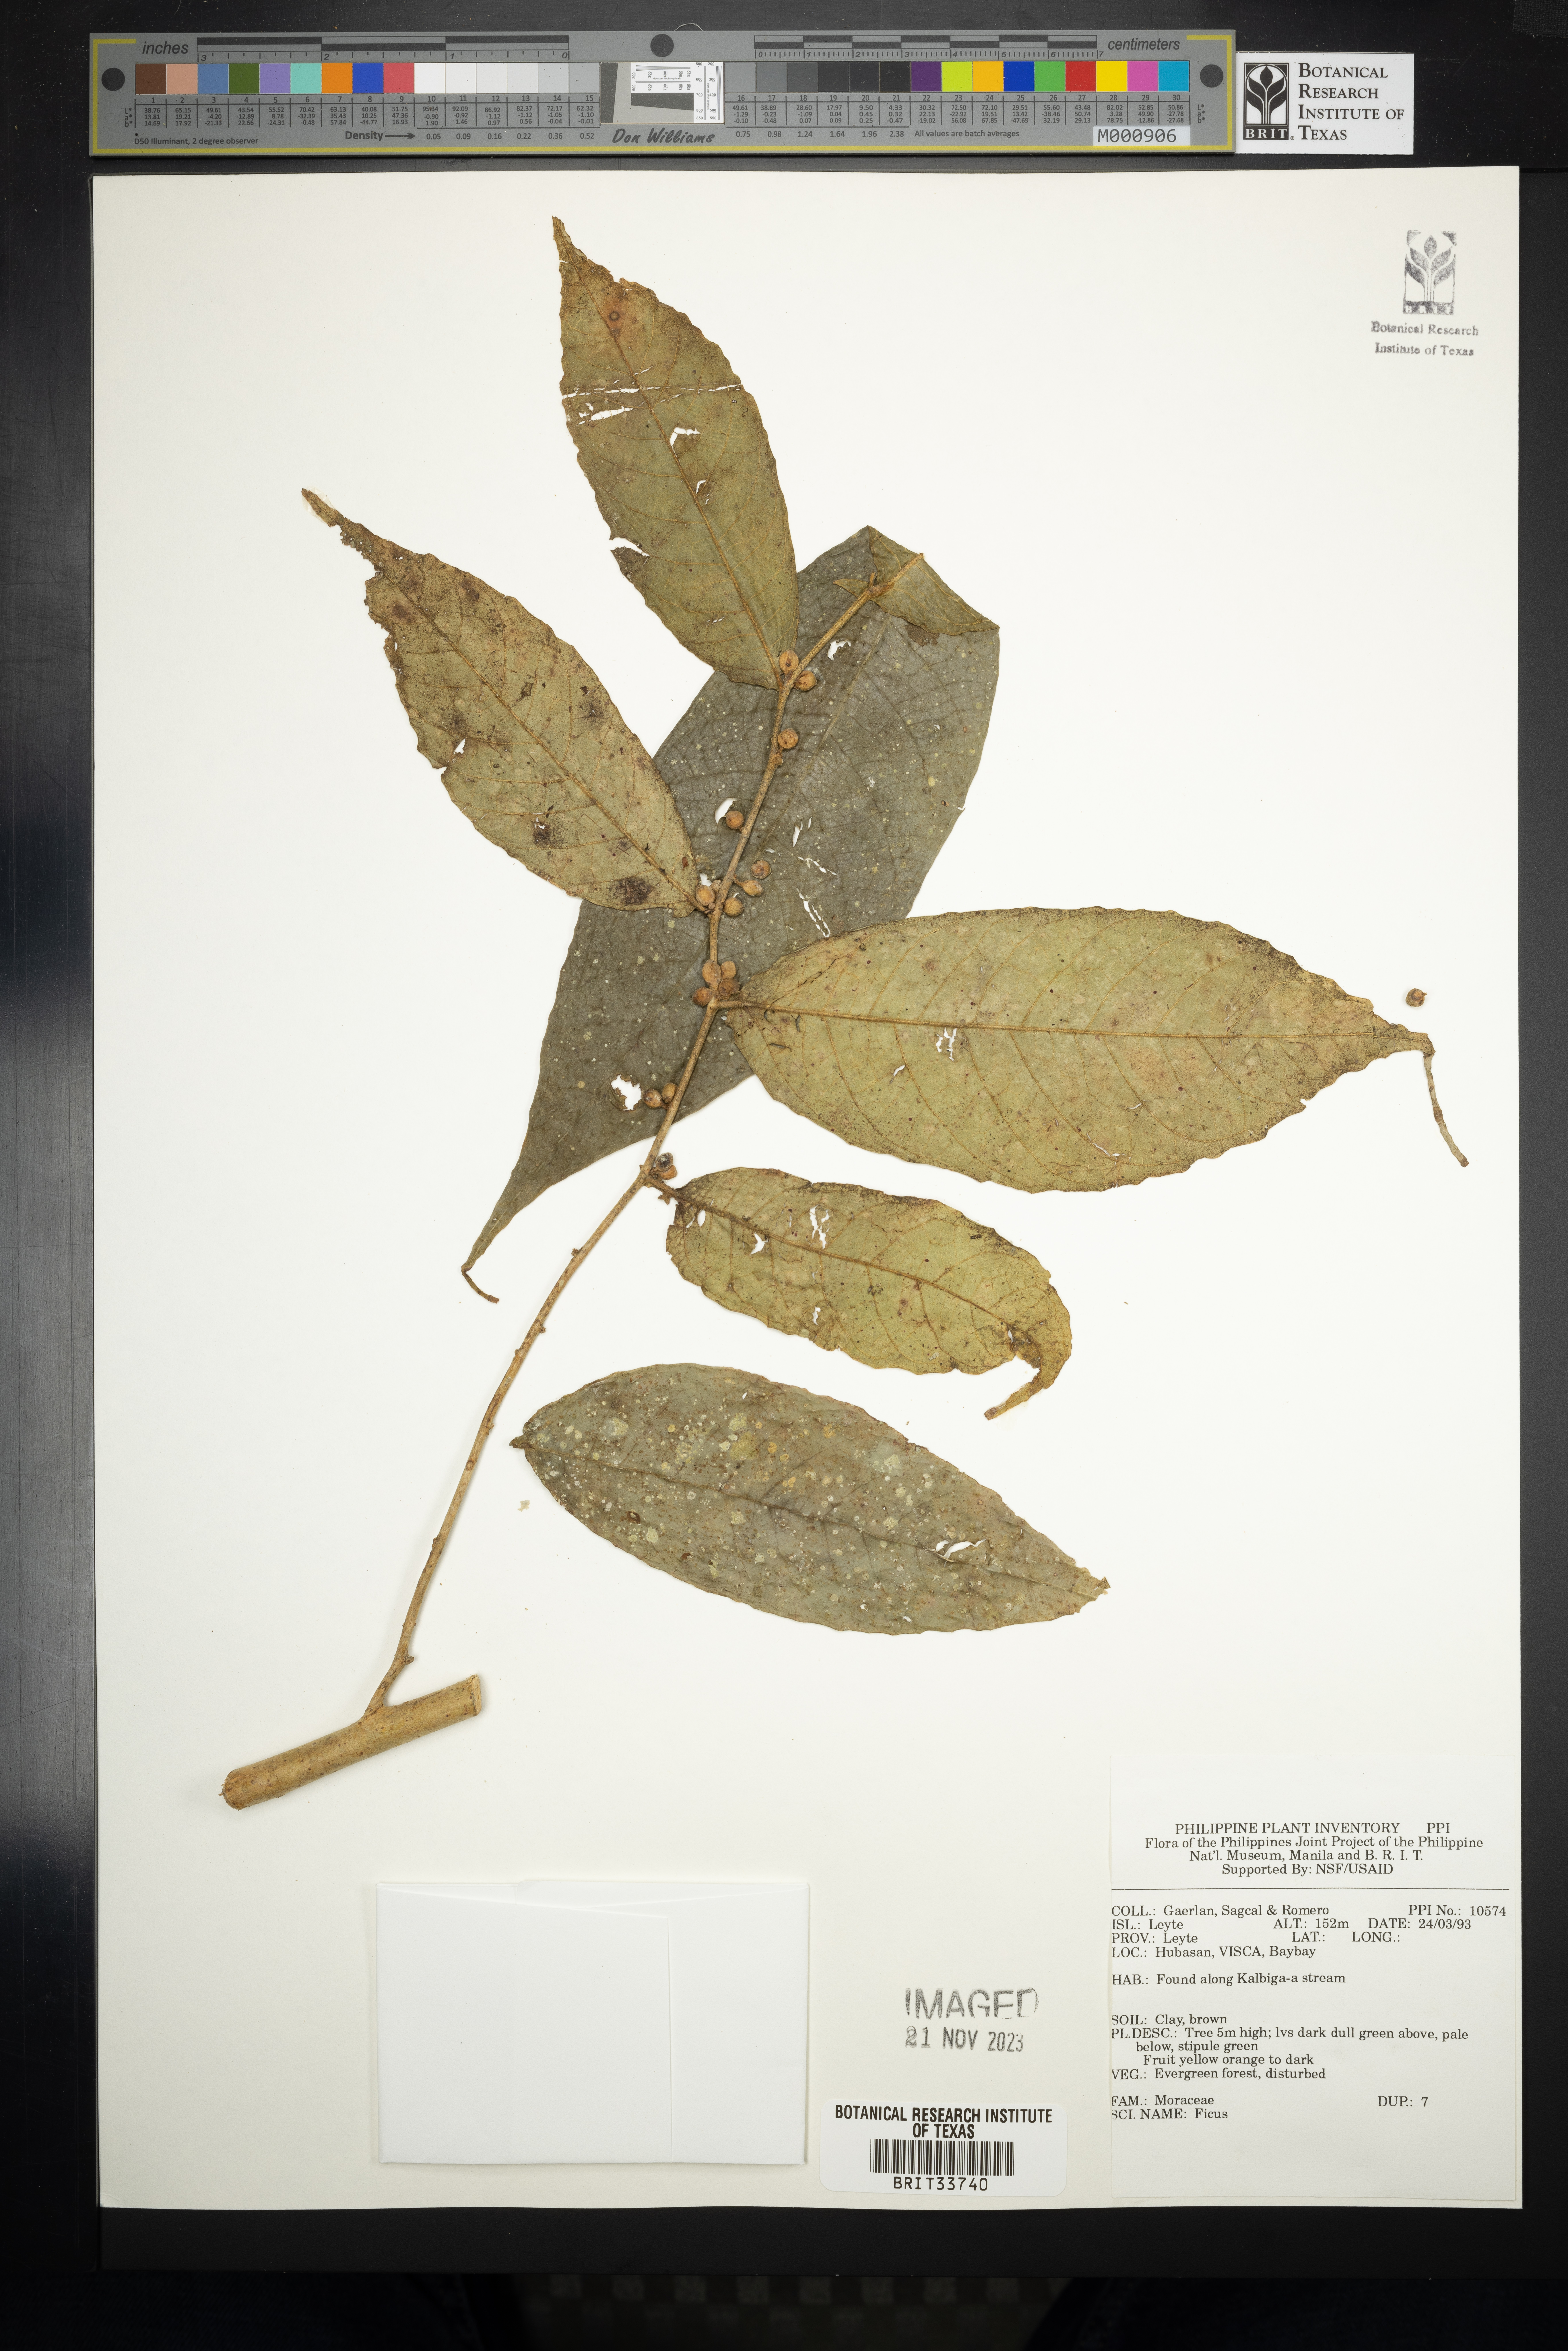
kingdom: Plantae
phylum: Tracheophyta
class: Magnoliopsida
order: Rosales
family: Moraceae
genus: Ficus
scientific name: Ficus
